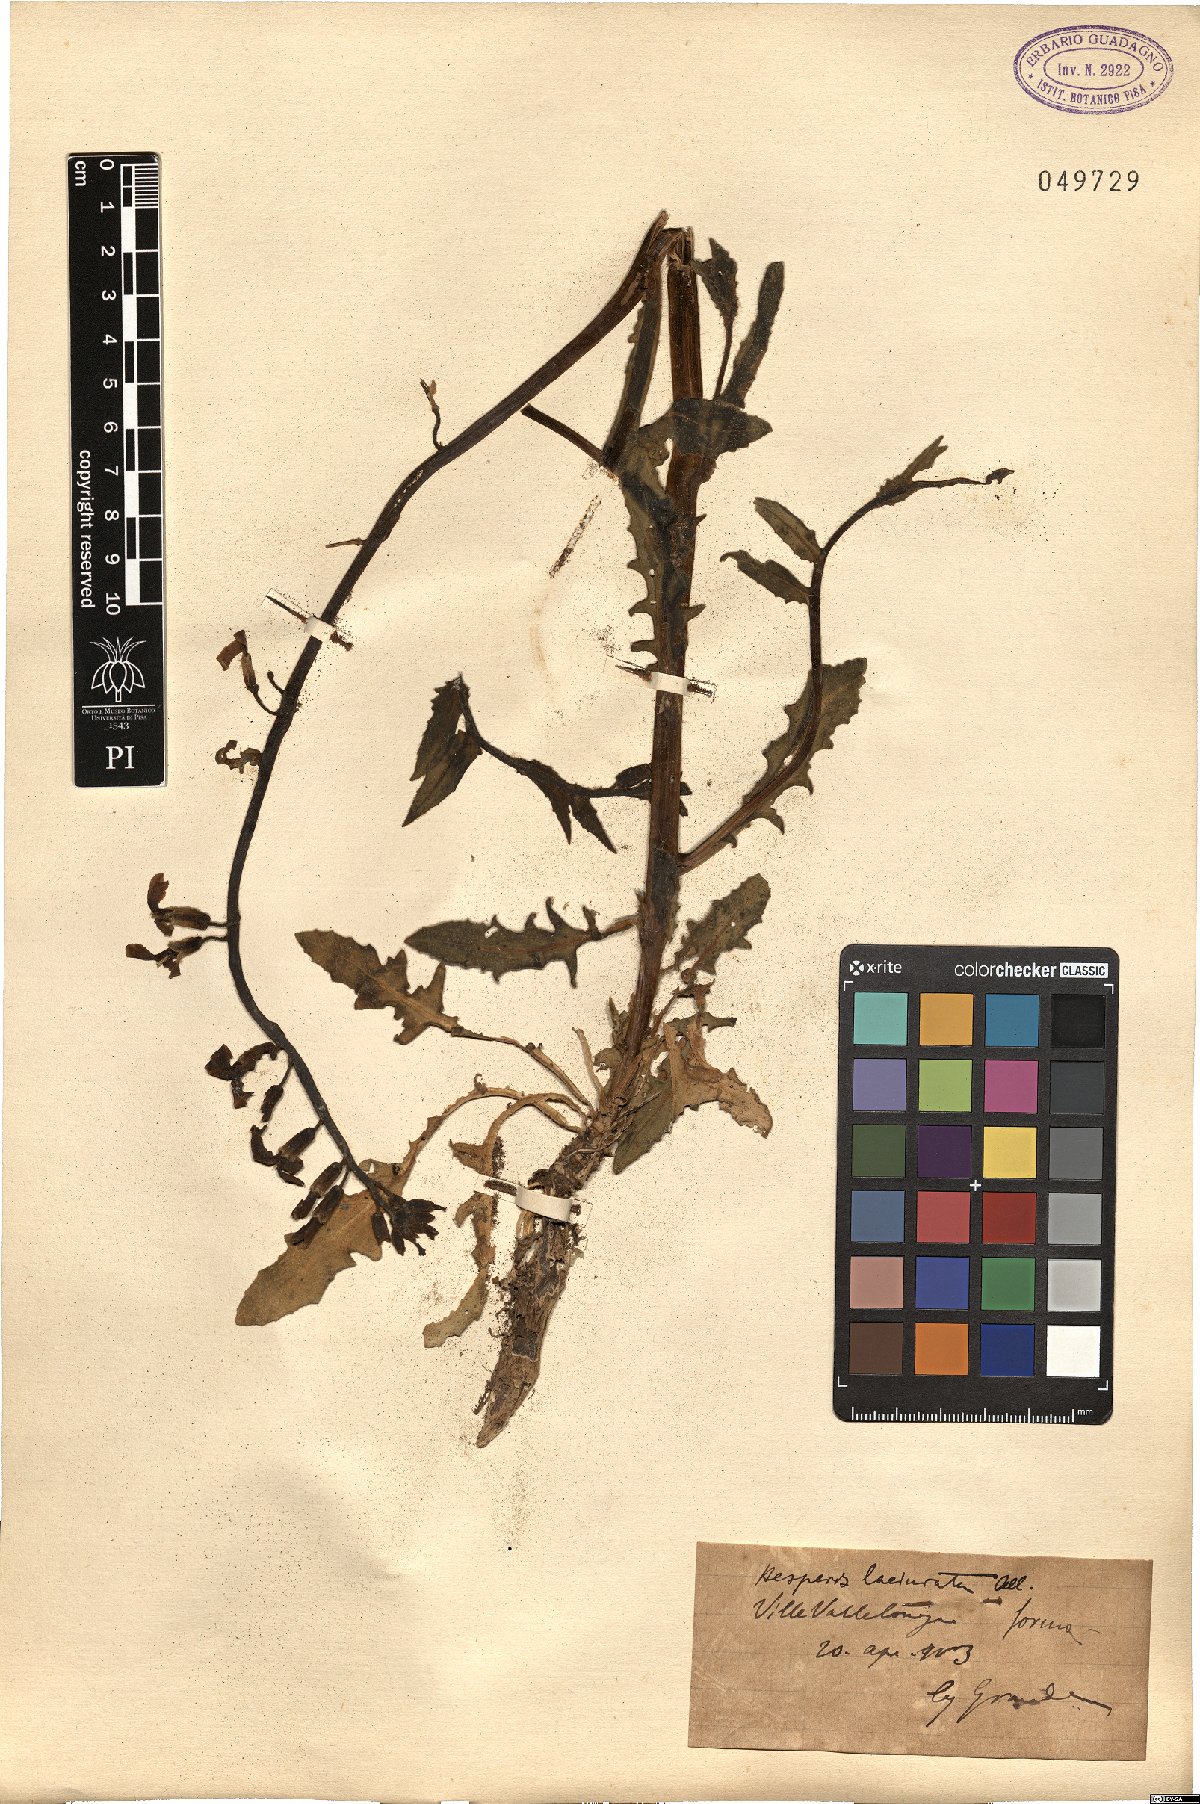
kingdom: Plantae
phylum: Tracheophyta
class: Magnoliopsida
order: Brassicales
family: Brassicaceae
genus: Hesperis
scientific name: Hesperis laciniata
